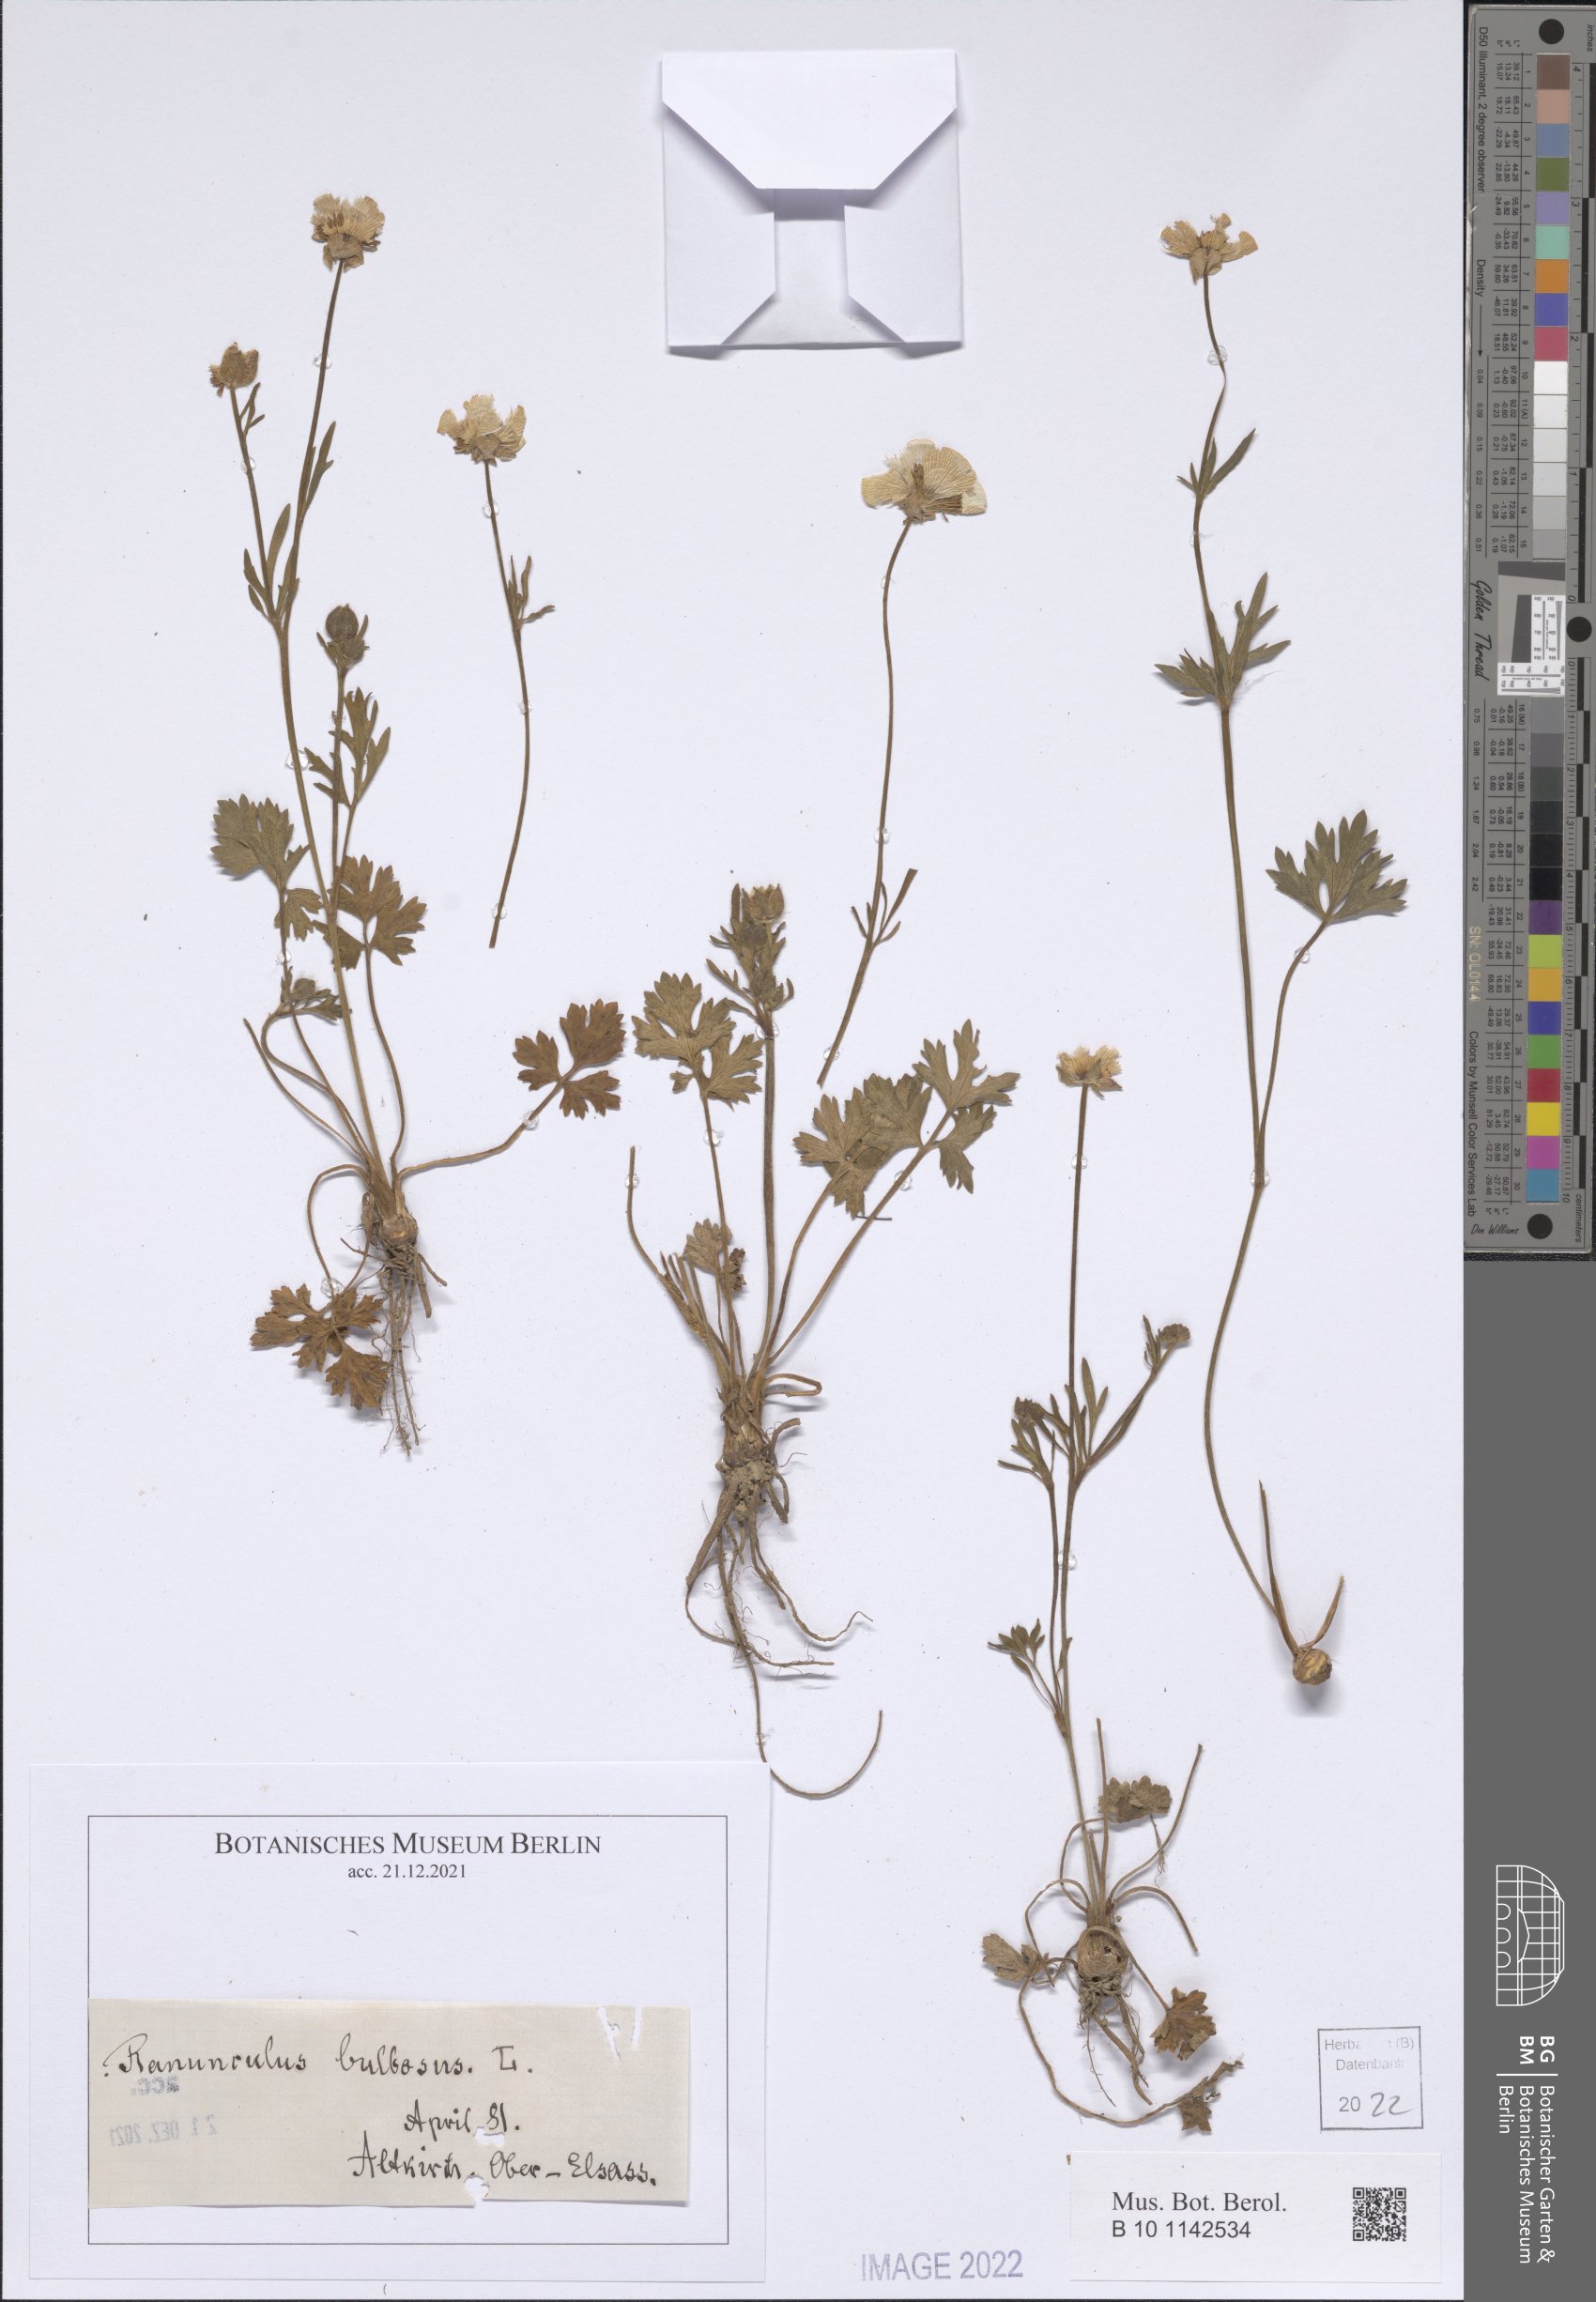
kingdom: Plantae
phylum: Tracheophyta
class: Magnoliopsida
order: Ranunculales
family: Ranunculaceae
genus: Ranunculus
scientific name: Ranunculus bulbosus
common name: Bulbous buttercup
